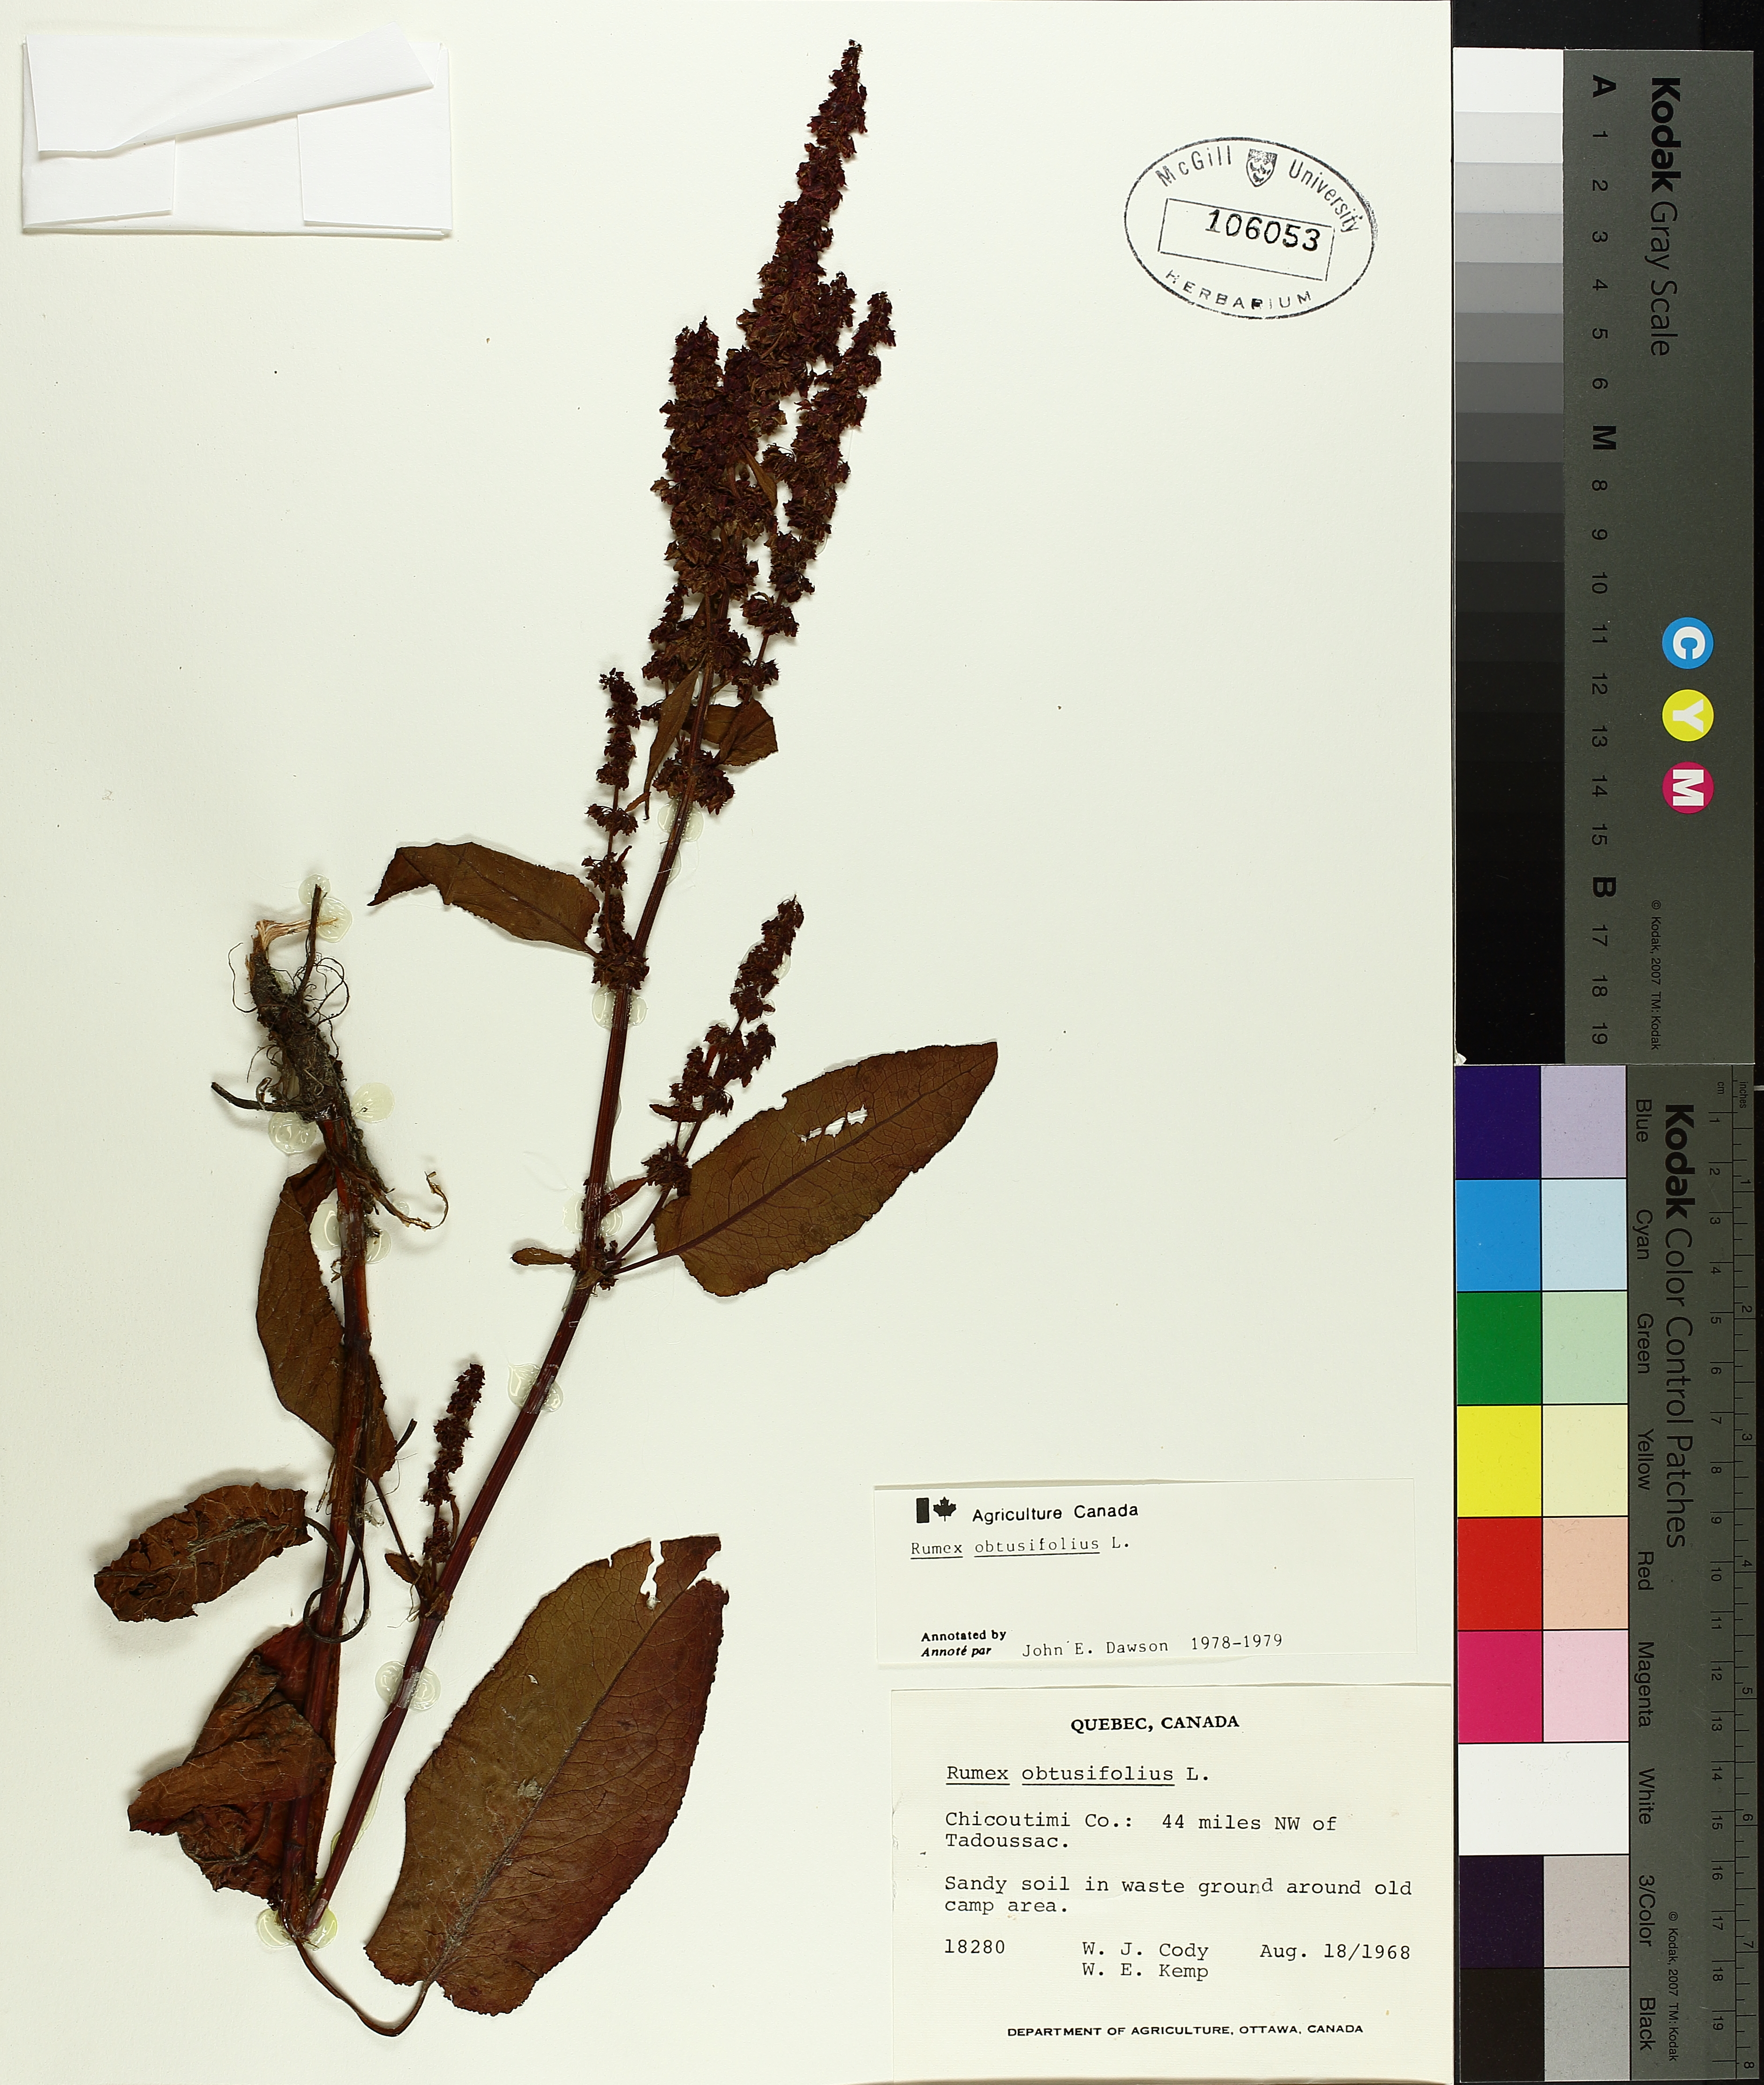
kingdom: Plantae
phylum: Tracheophyta
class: Magnoliopsida
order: Caryophyllales
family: Polygonaceae
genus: Rumex
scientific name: Rumex obtusifolius
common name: Bitter dock
